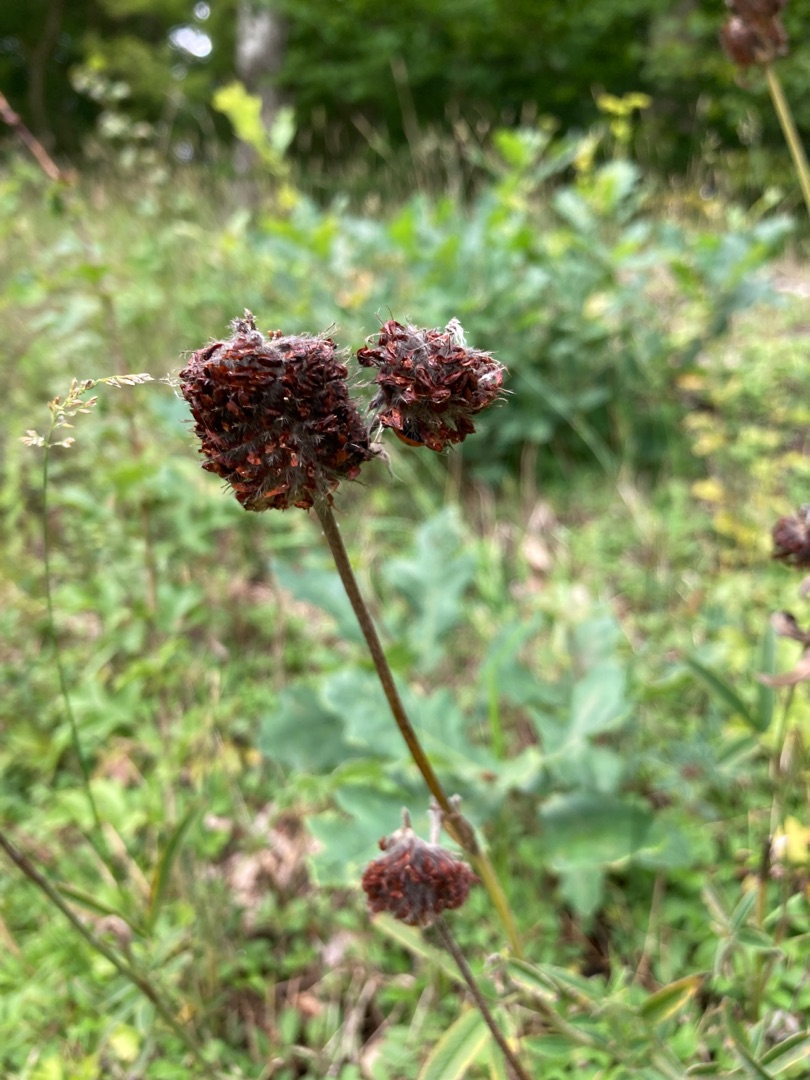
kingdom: Plantae
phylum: Tracheophyta
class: Magnoliopsida
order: Fabales
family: Fabaceae
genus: Trifolium
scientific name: Trifolium alpestre
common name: Skov-kløver
